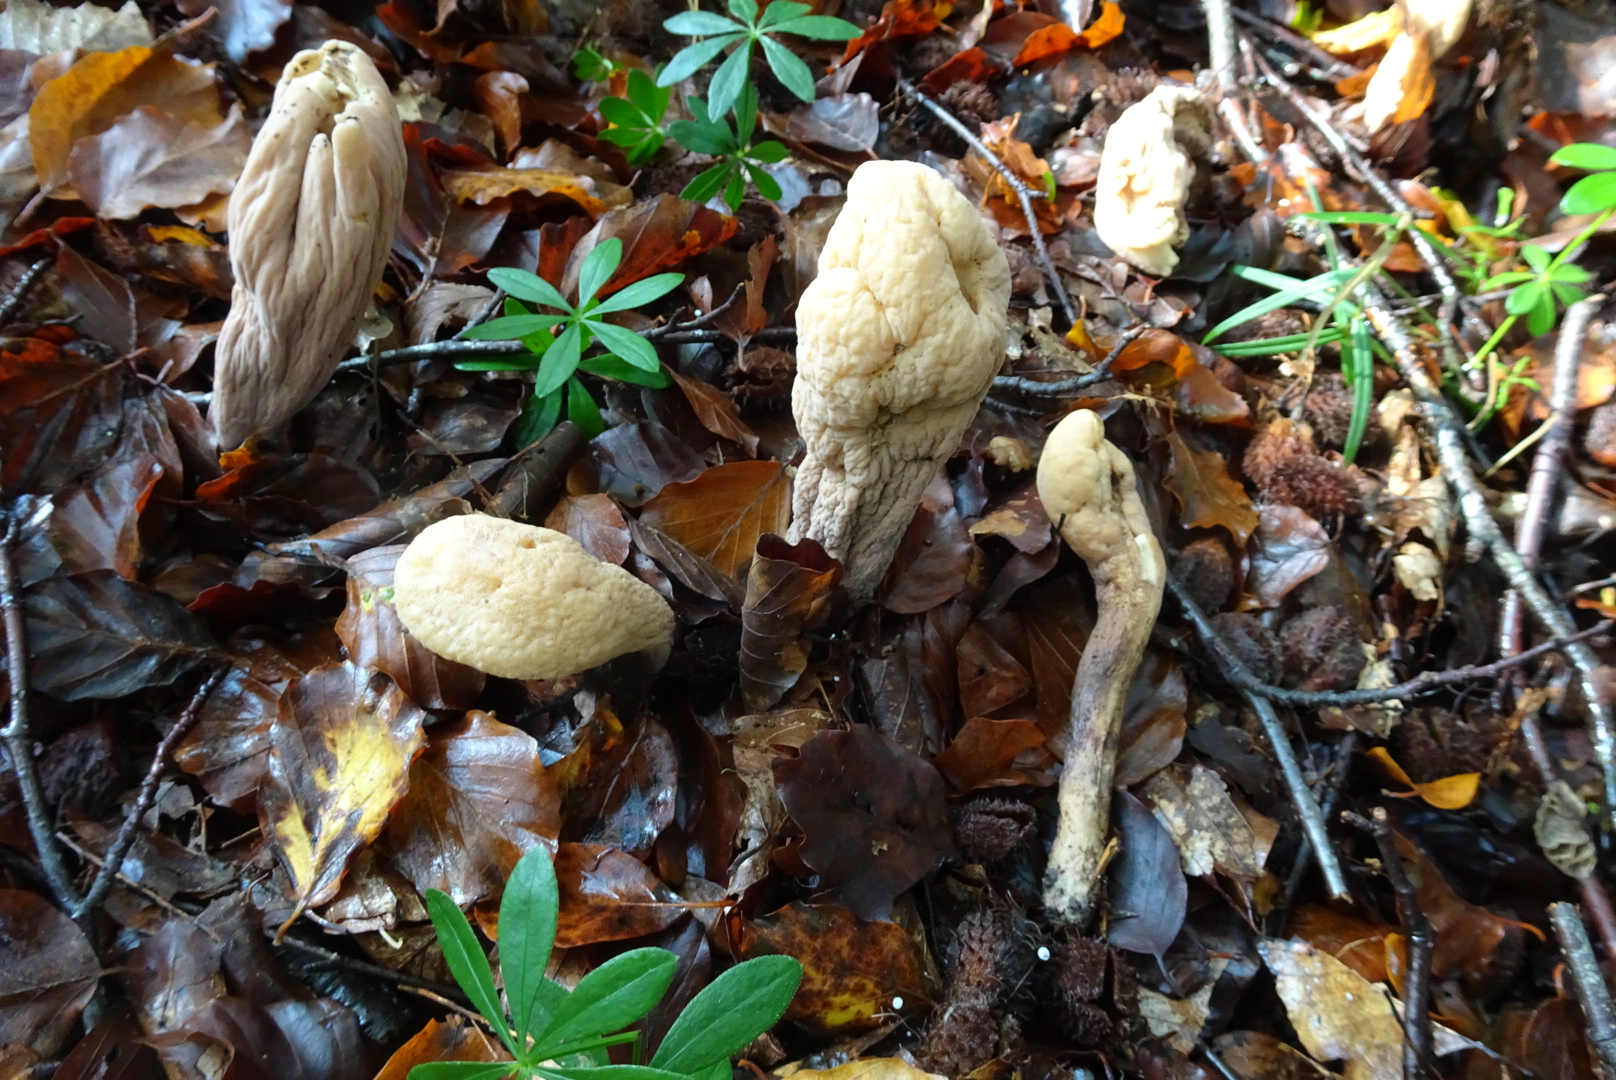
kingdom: Fungi
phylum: Basidiomycota
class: Agaricomycetes
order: Gomphales
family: Clavariadelphaceae
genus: Clavariadelphus
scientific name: Clavariadelphus pistillaris
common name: herkules-kæmpekølle
